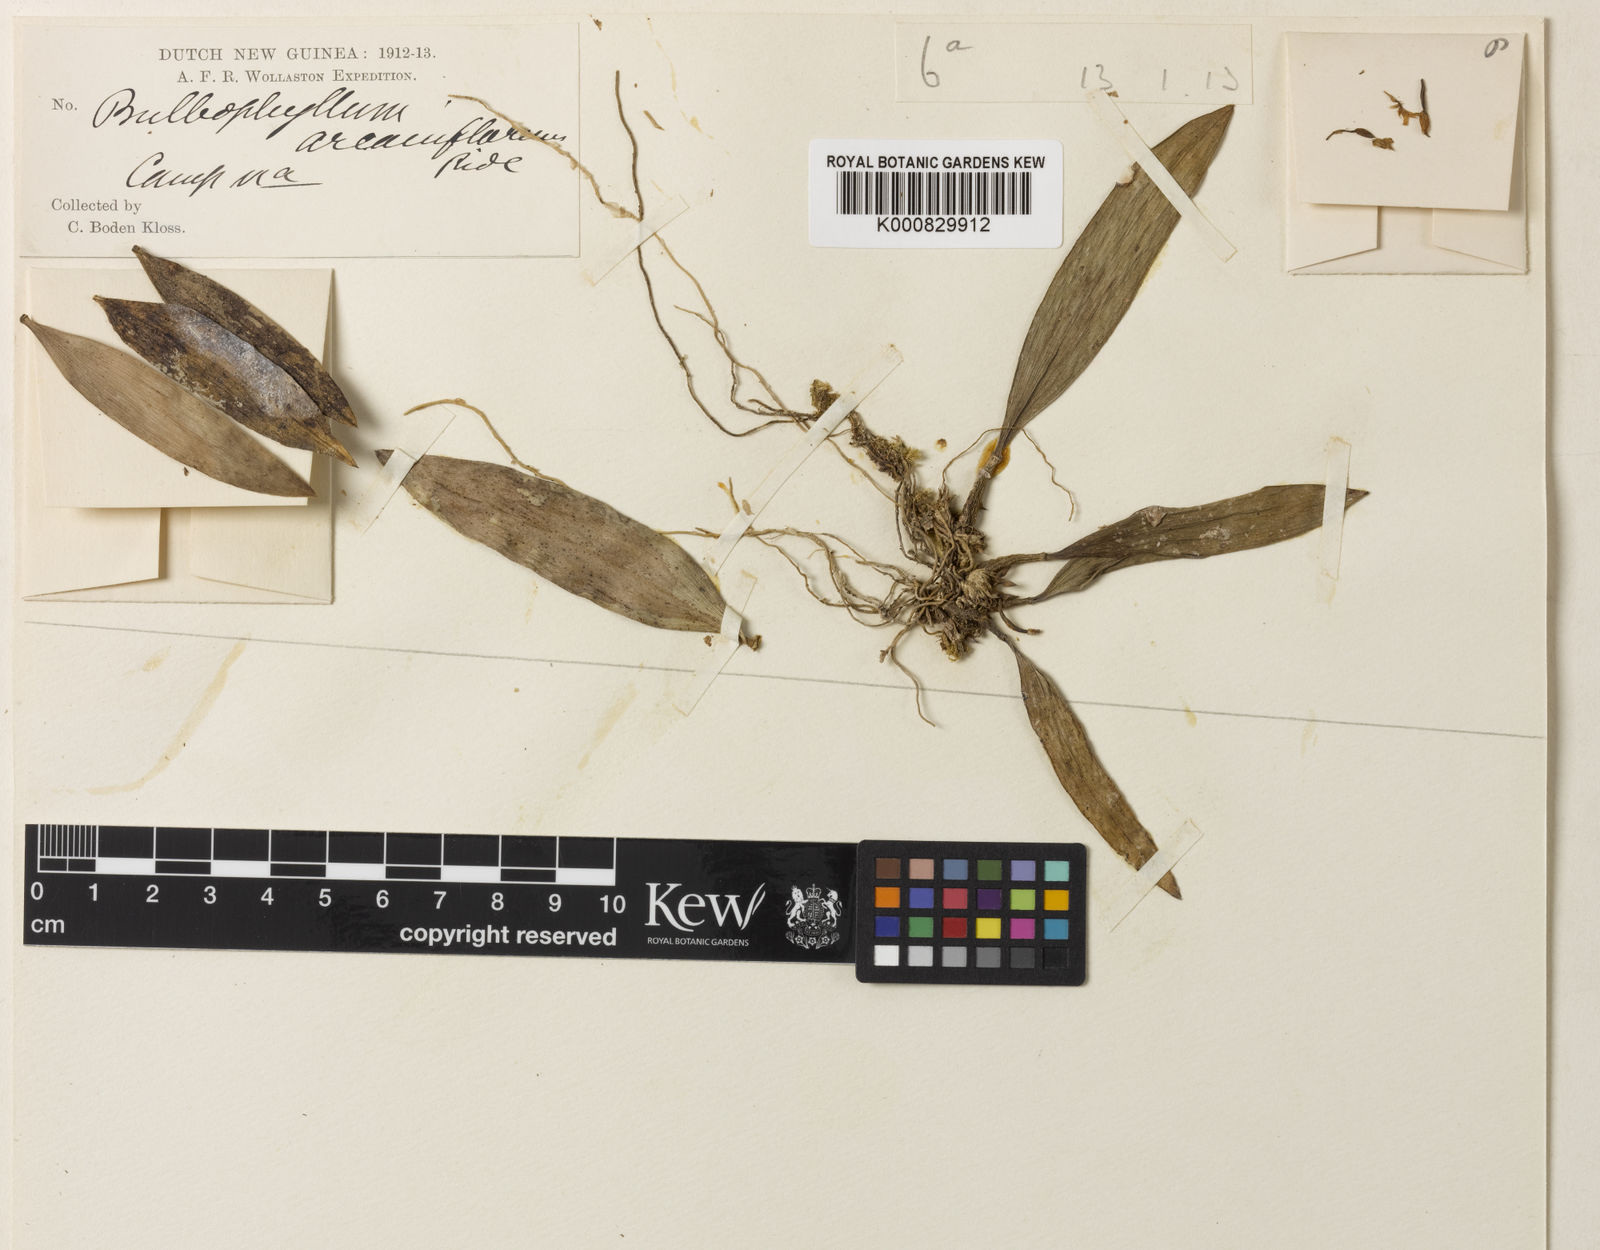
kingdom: Plantae
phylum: Tracheophyta
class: Liliopsida
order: Asparagales
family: Orchidaceae
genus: Bulbophyllum
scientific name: Bulbophyllum arcaniflorum
